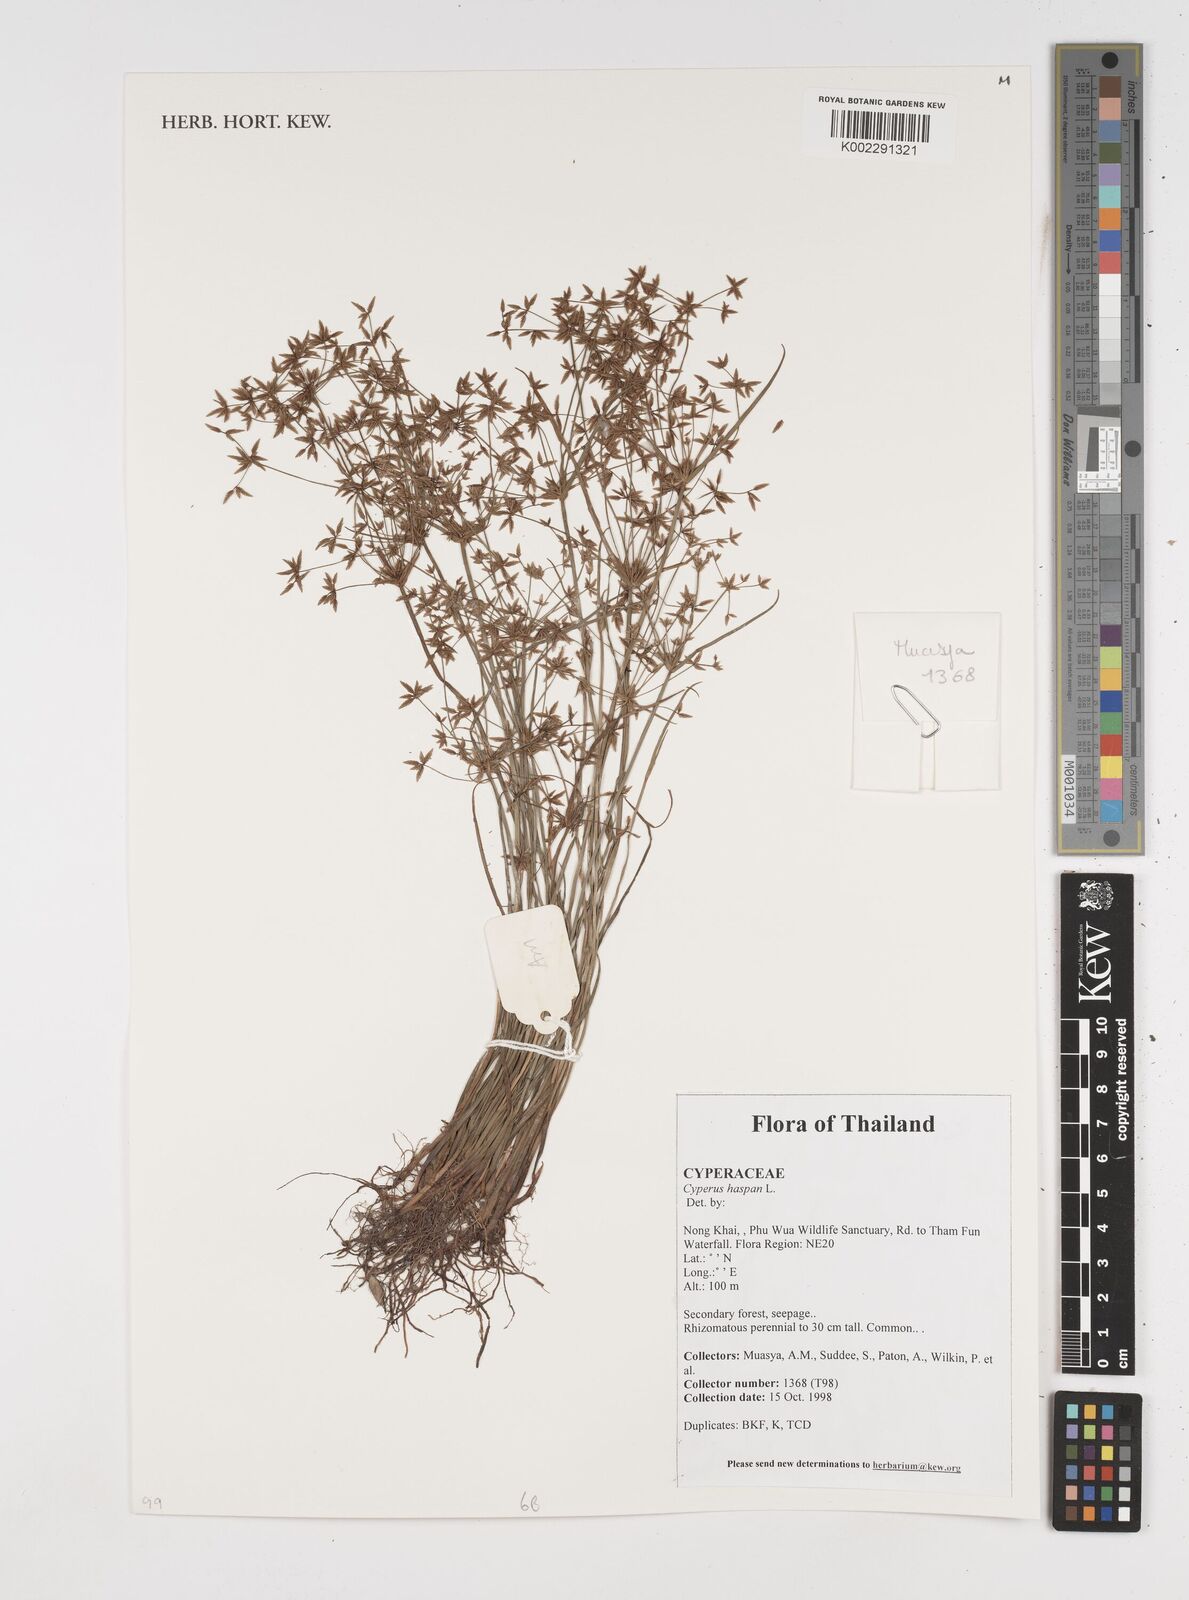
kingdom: Plantae
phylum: Tracheophyta
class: Liliopsida
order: Poales
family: Cyperaceae
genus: Cyperus
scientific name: Cyperus haspan
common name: Haspan flatsedge
